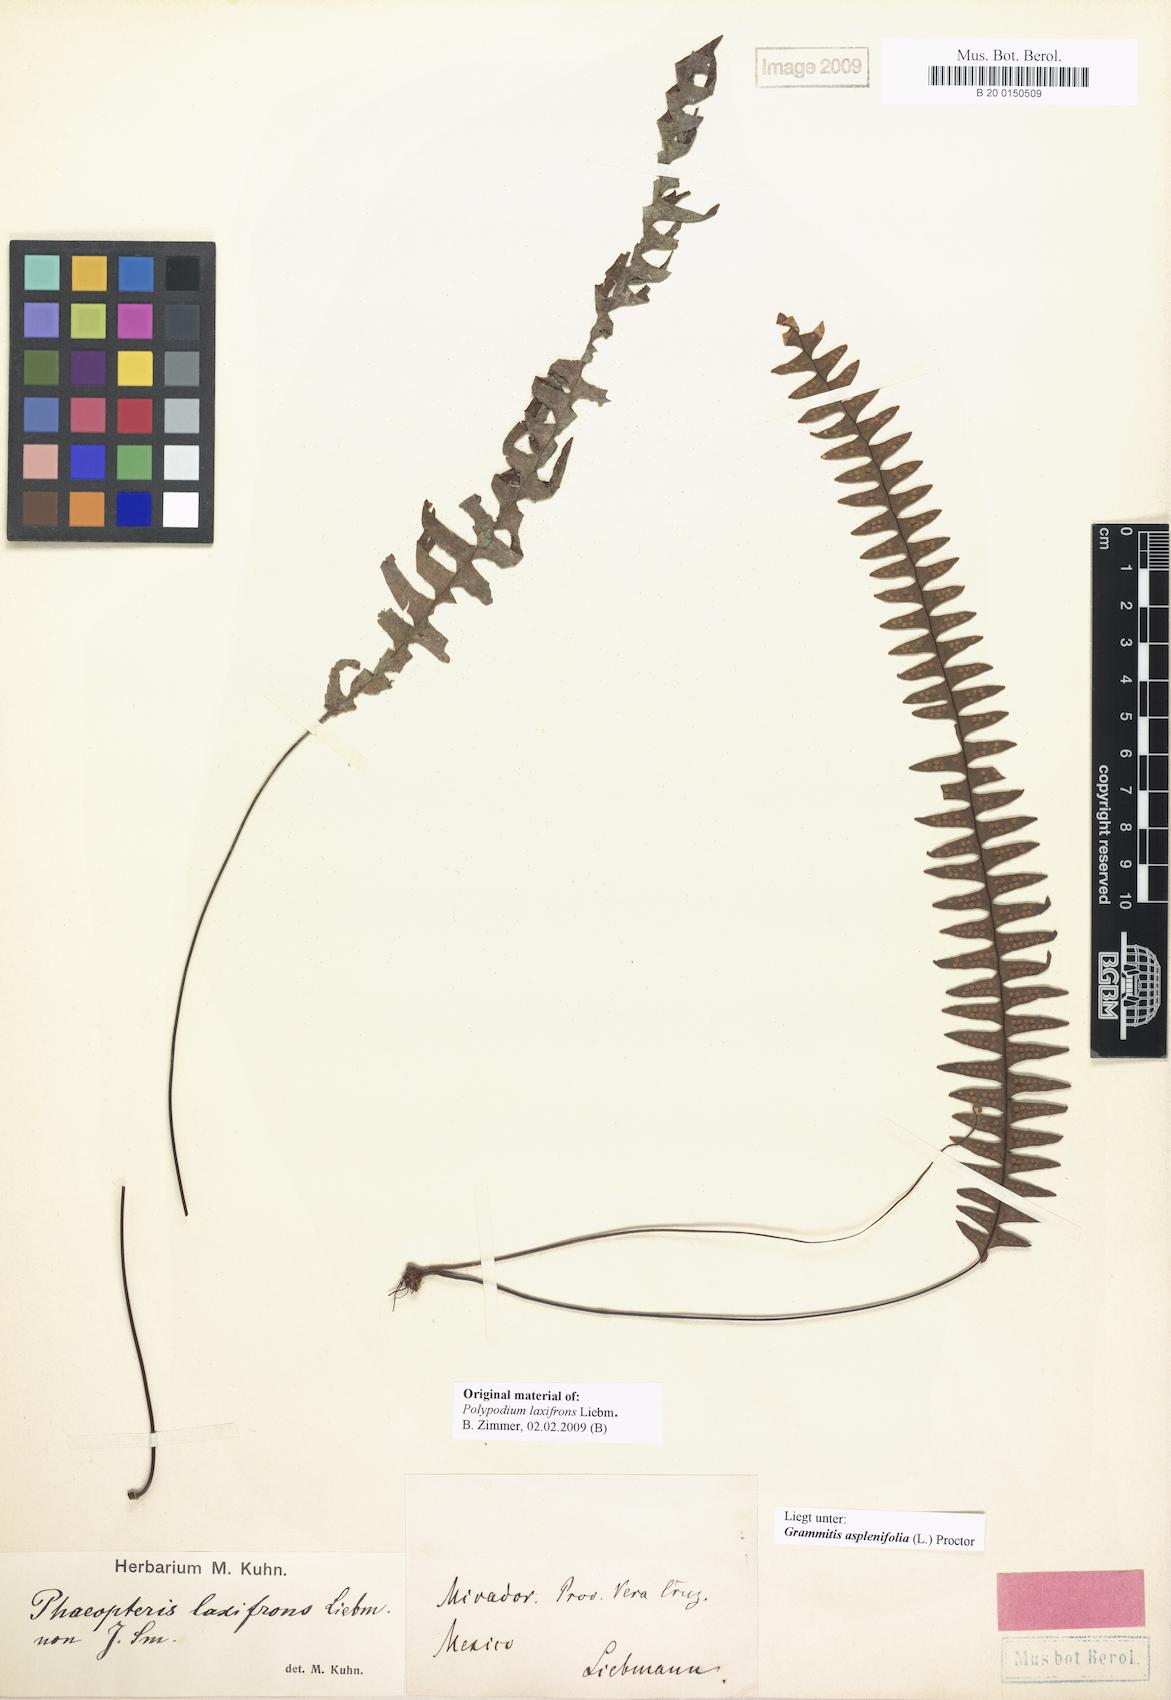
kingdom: Plantae
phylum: Tracheophyta
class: Polypodiopsida
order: Polypodiales
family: Polypodiaceae
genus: Terpsichore
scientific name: Terpsichore asplenifolia
